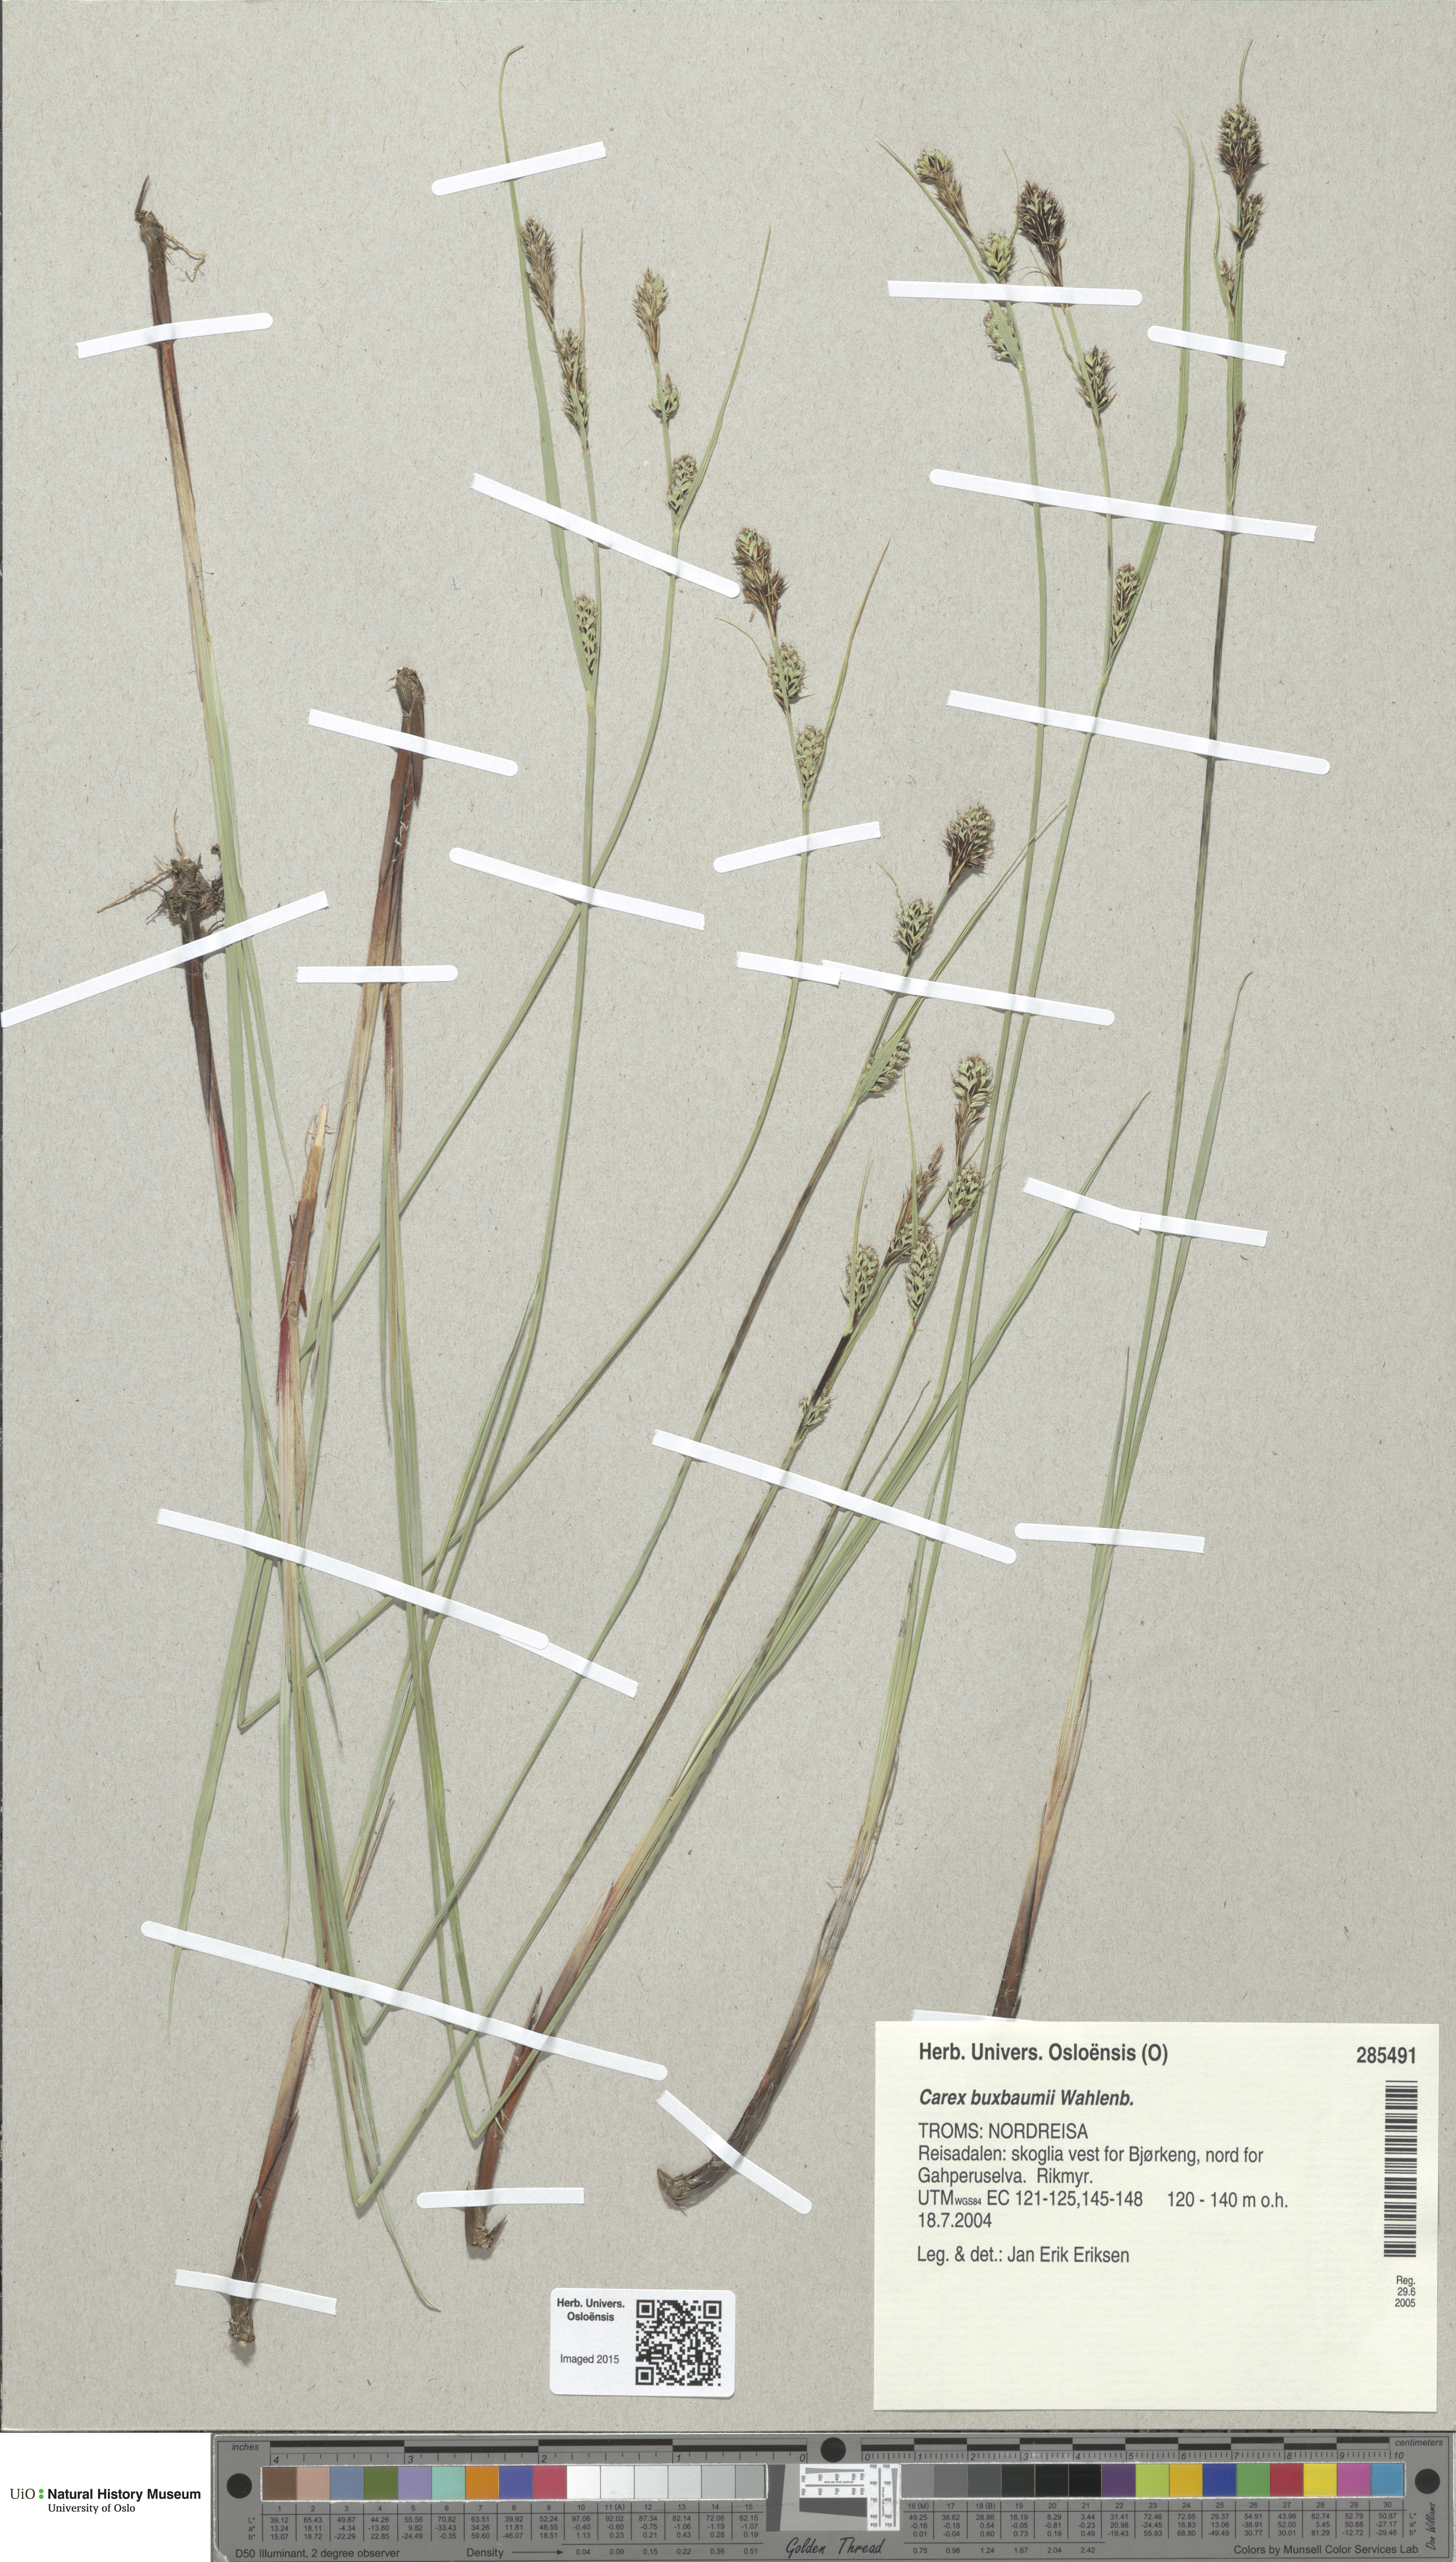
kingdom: Plantae
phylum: Tracheophyta
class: Liliopsida
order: Poales
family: Cyperaceae
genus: Carex
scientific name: Carex buxbaumii
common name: Club sedge
